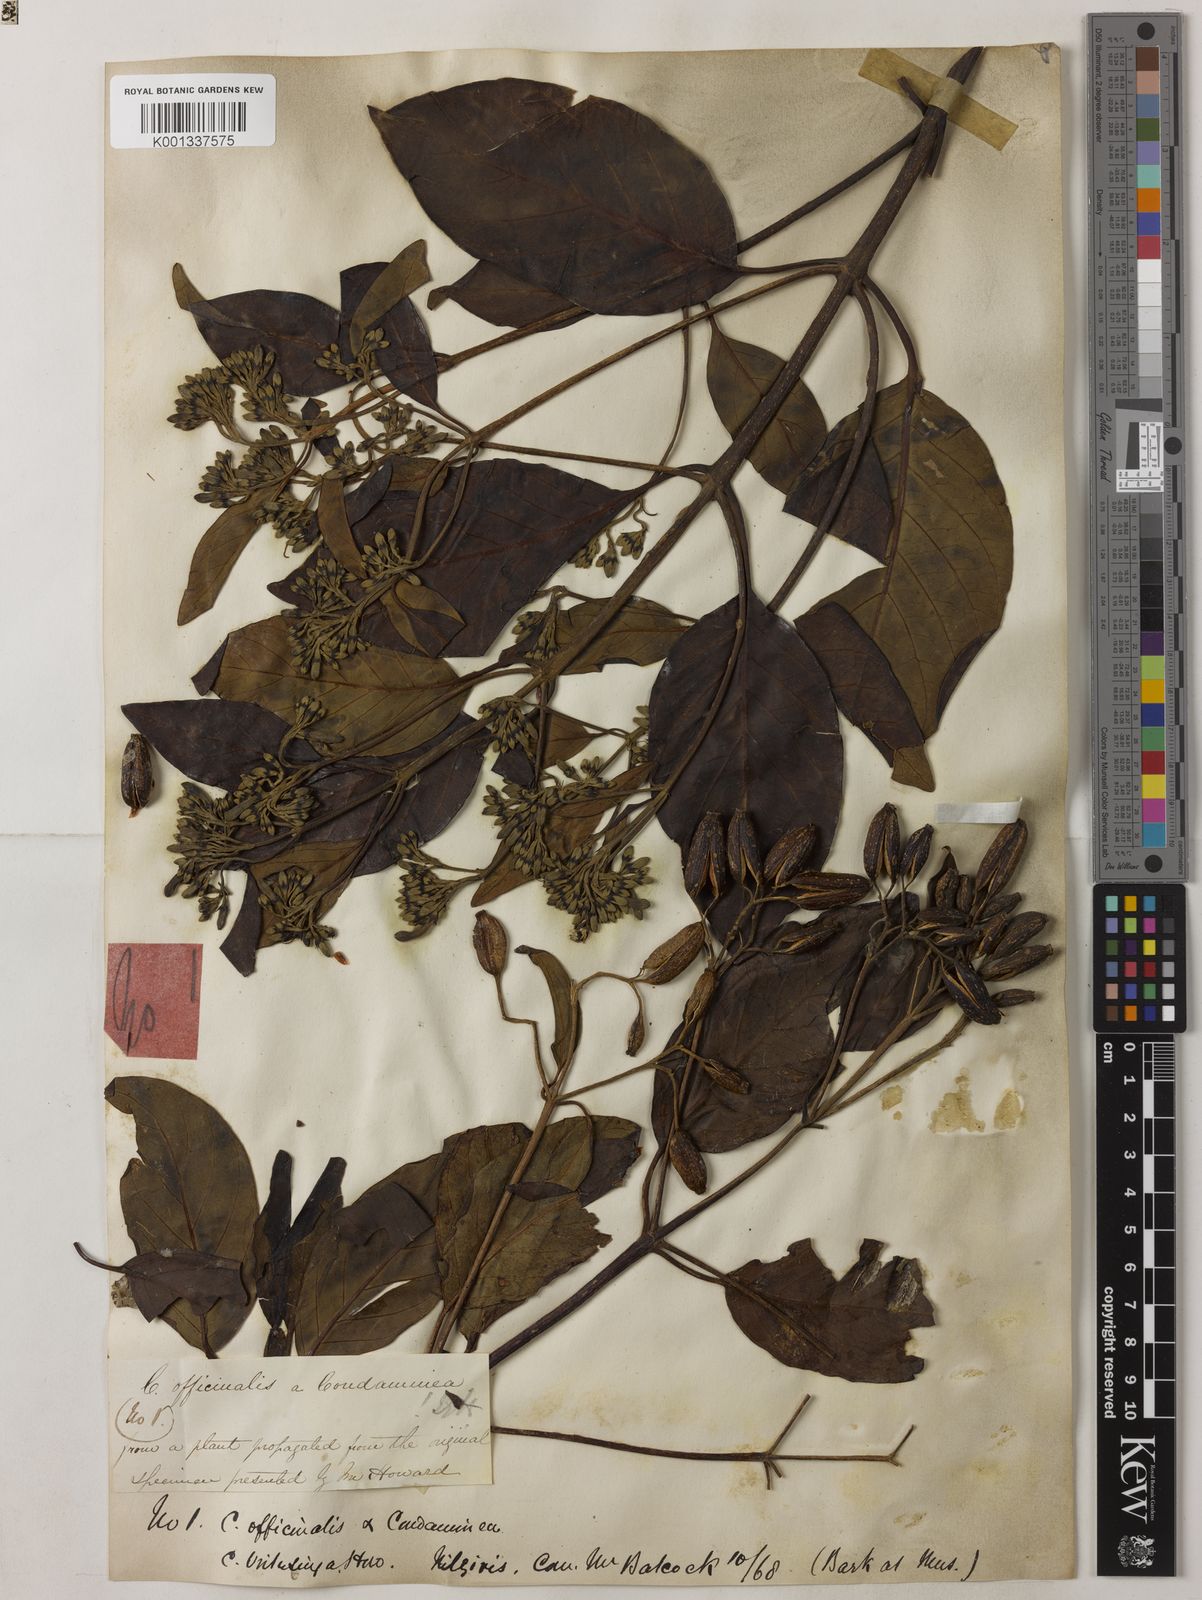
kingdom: Plantae
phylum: Tracheophyta
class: Magnoliopsida
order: Gentianales
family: Rubiaceae
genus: Cinchona
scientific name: Cinchona officinalis
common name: Lojabark
